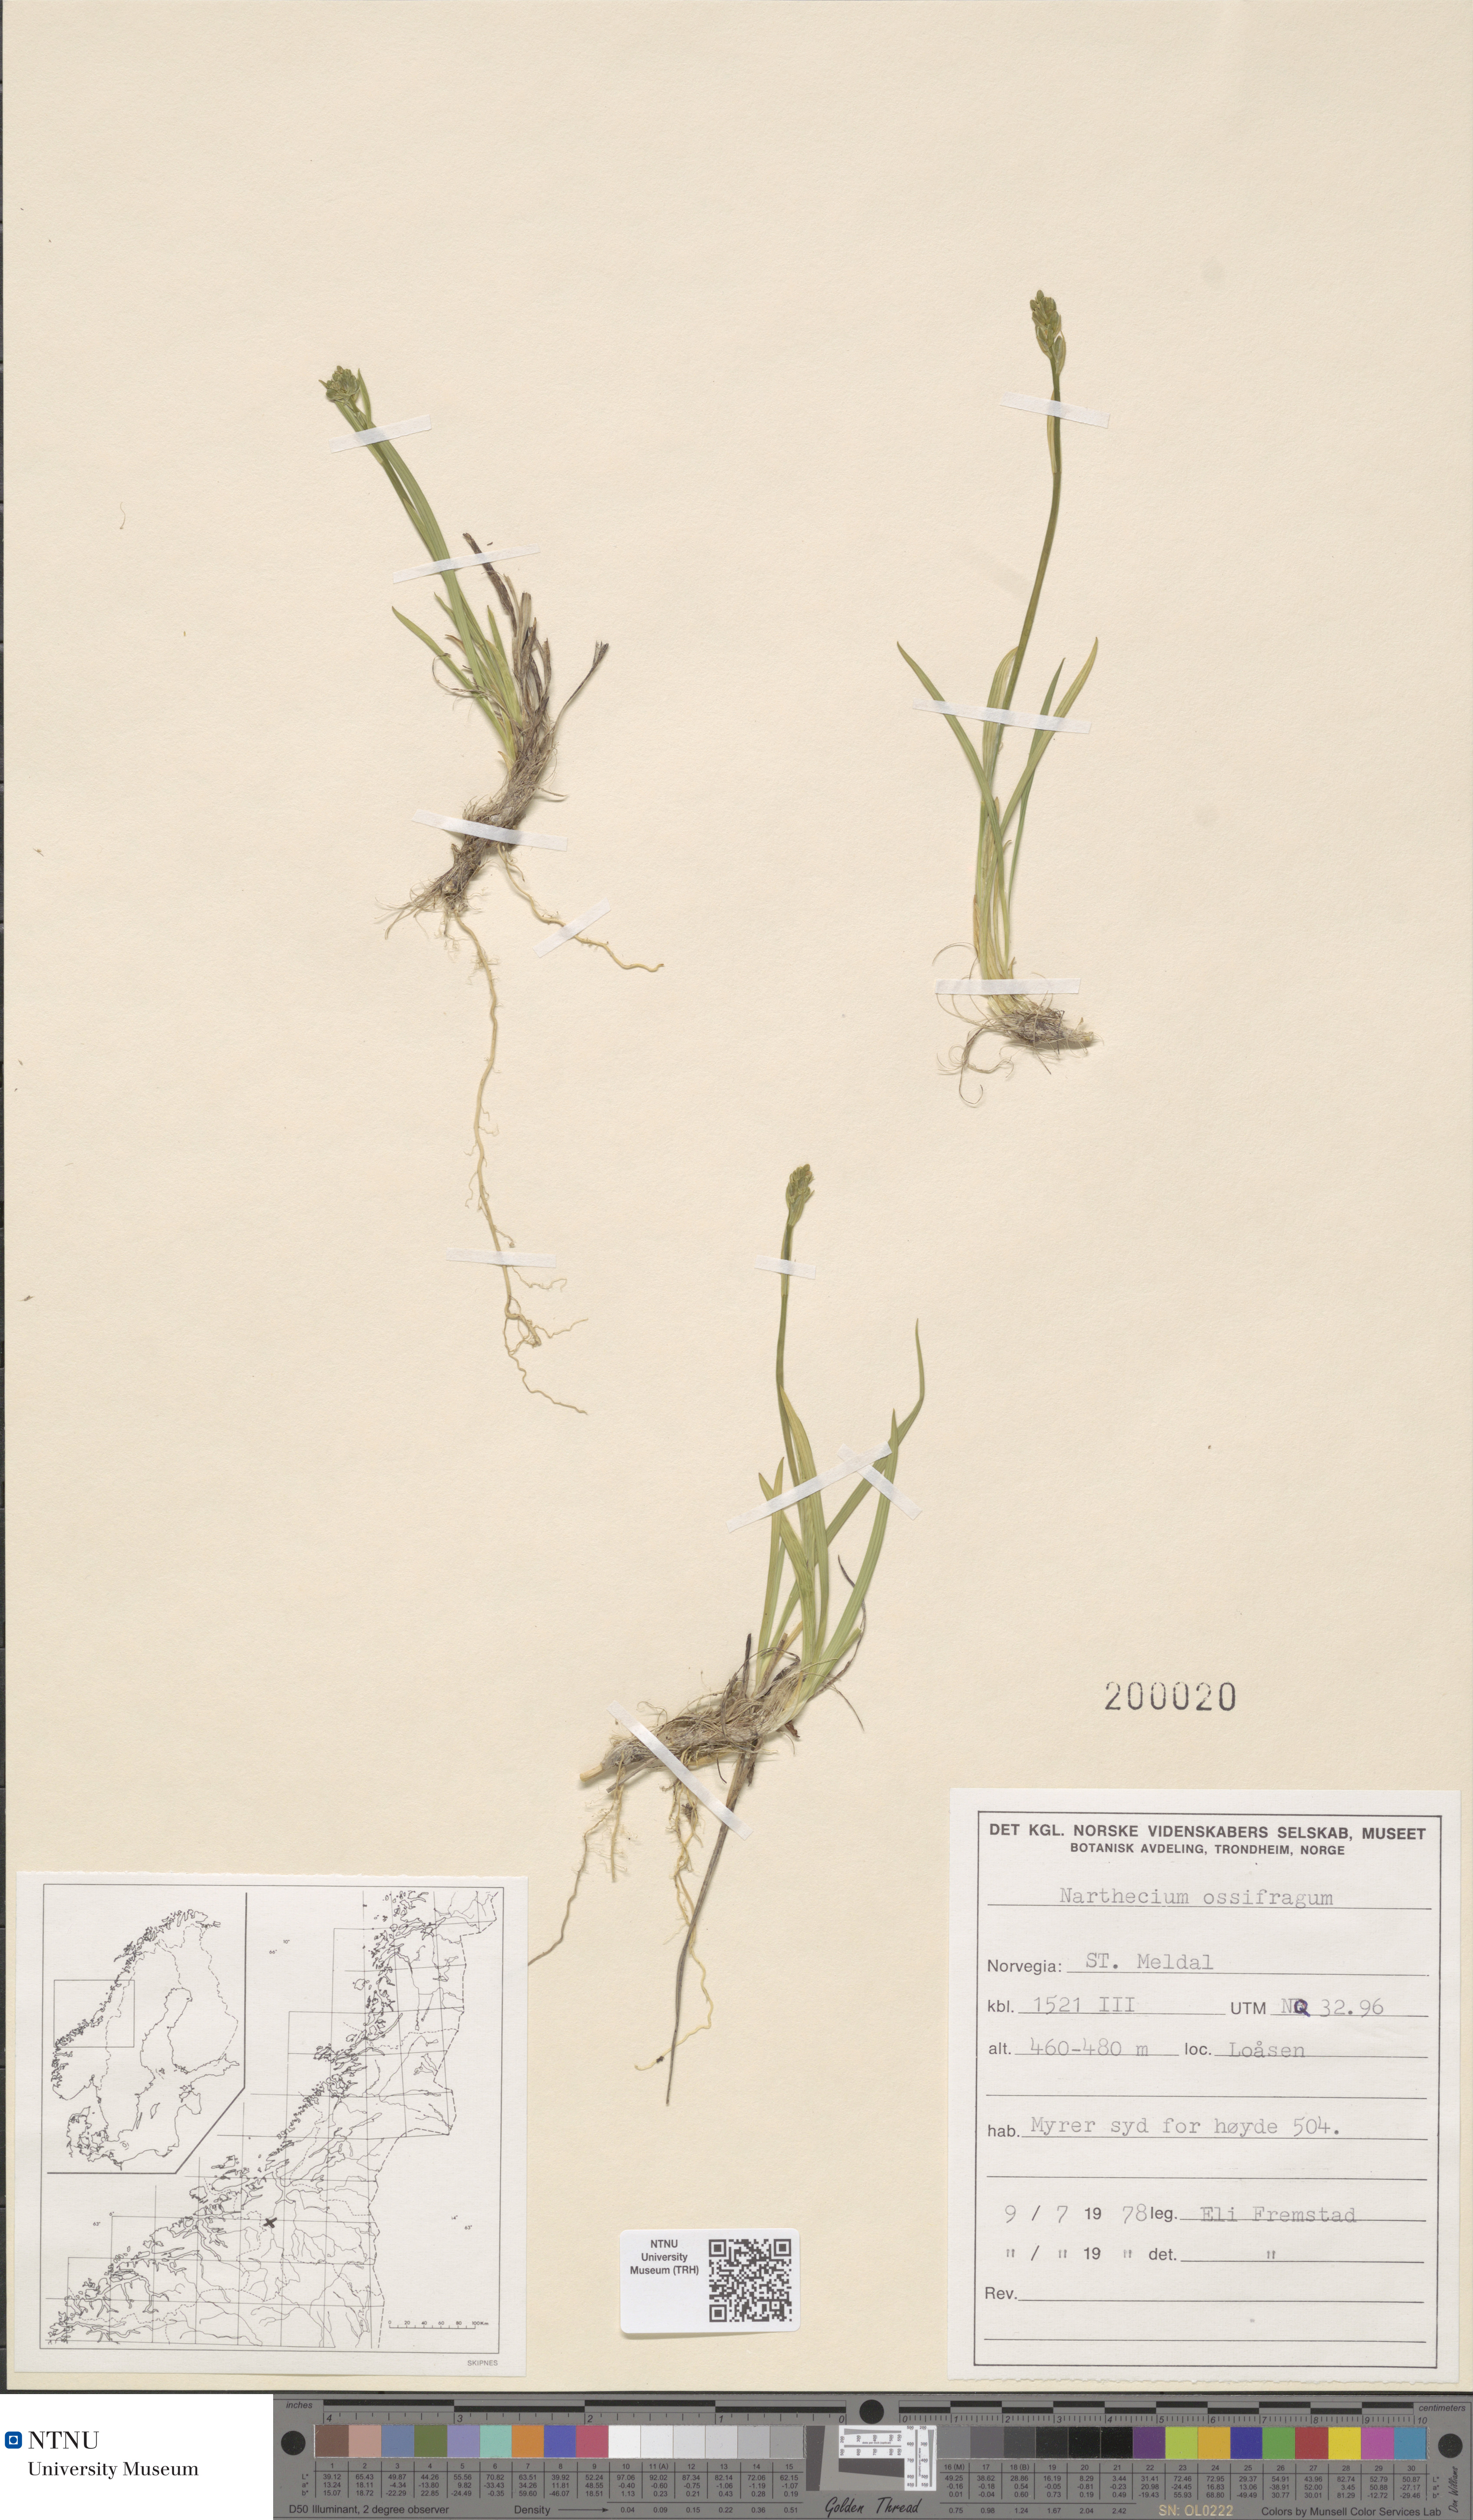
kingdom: Plantae
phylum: Tracheophyta
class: Liliopsida
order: Dioscoreales
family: Nartheciaceae
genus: Narthecium
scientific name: Narthecium ossifragum
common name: Bog asphodel
